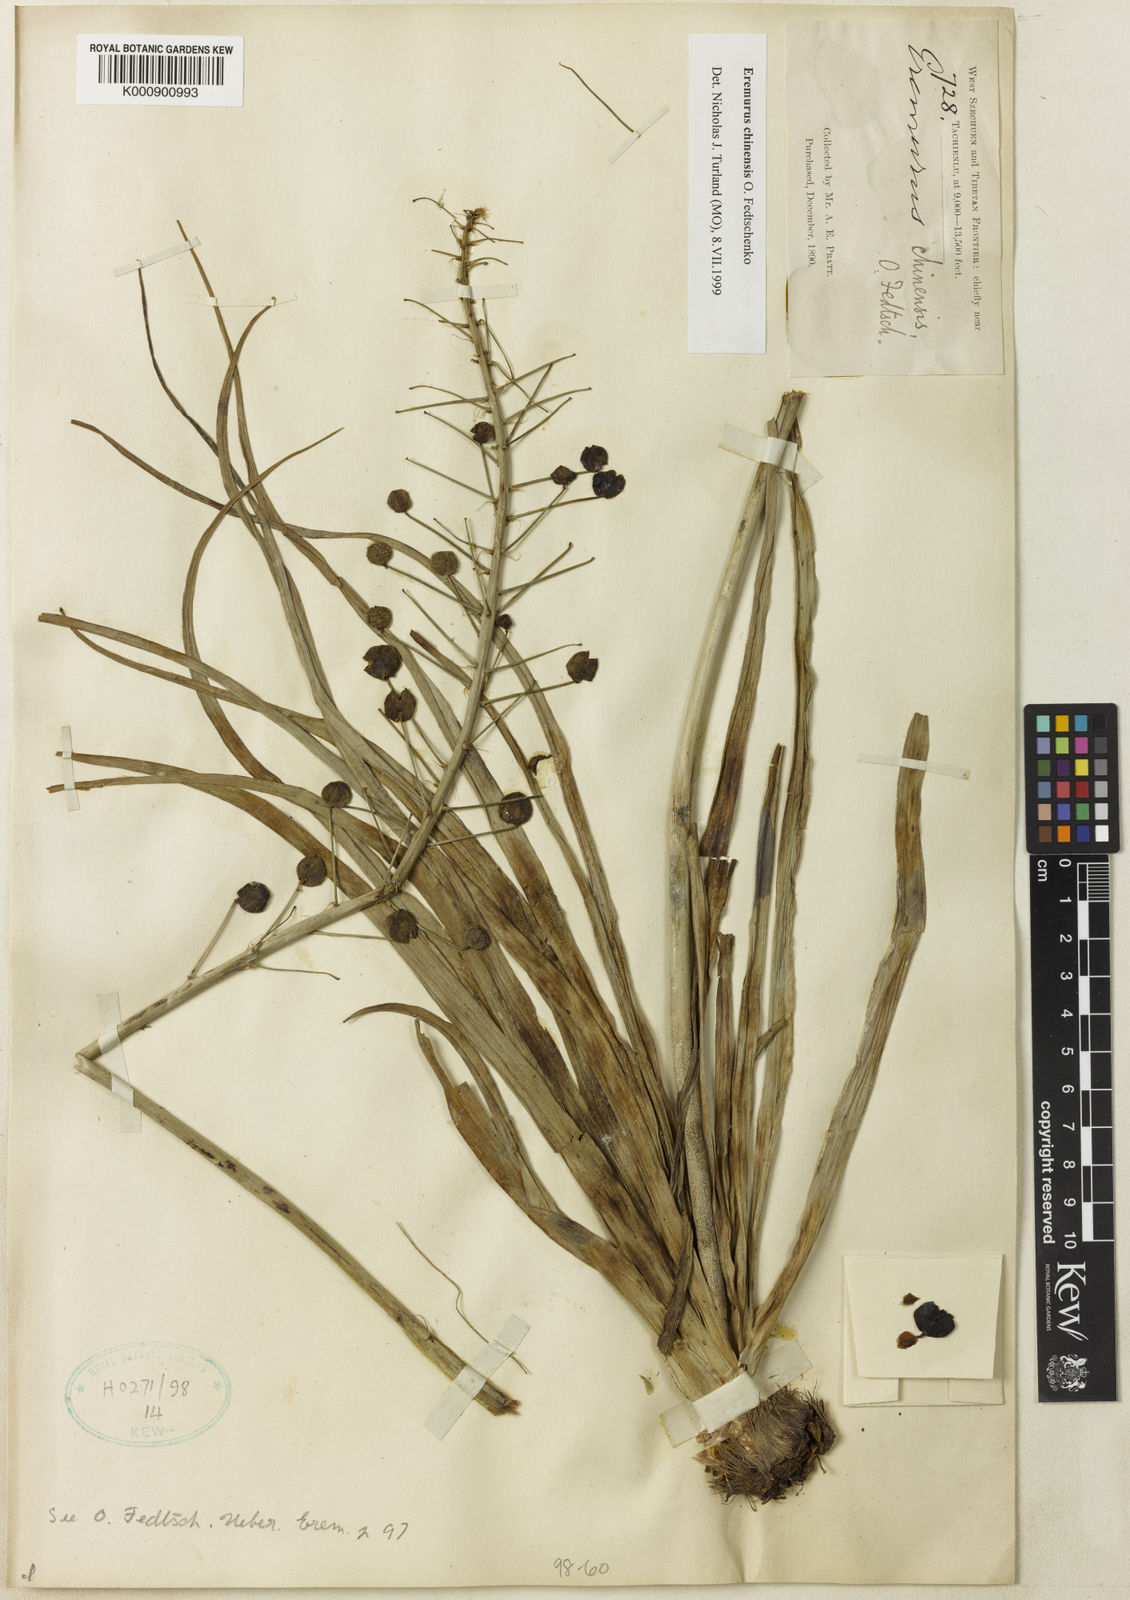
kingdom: Plantae
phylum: Tracheophyta
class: Liliopsida
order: Asparagales
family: Asphodelaceae
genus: Eremurus
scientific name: Eremurus chinensis
